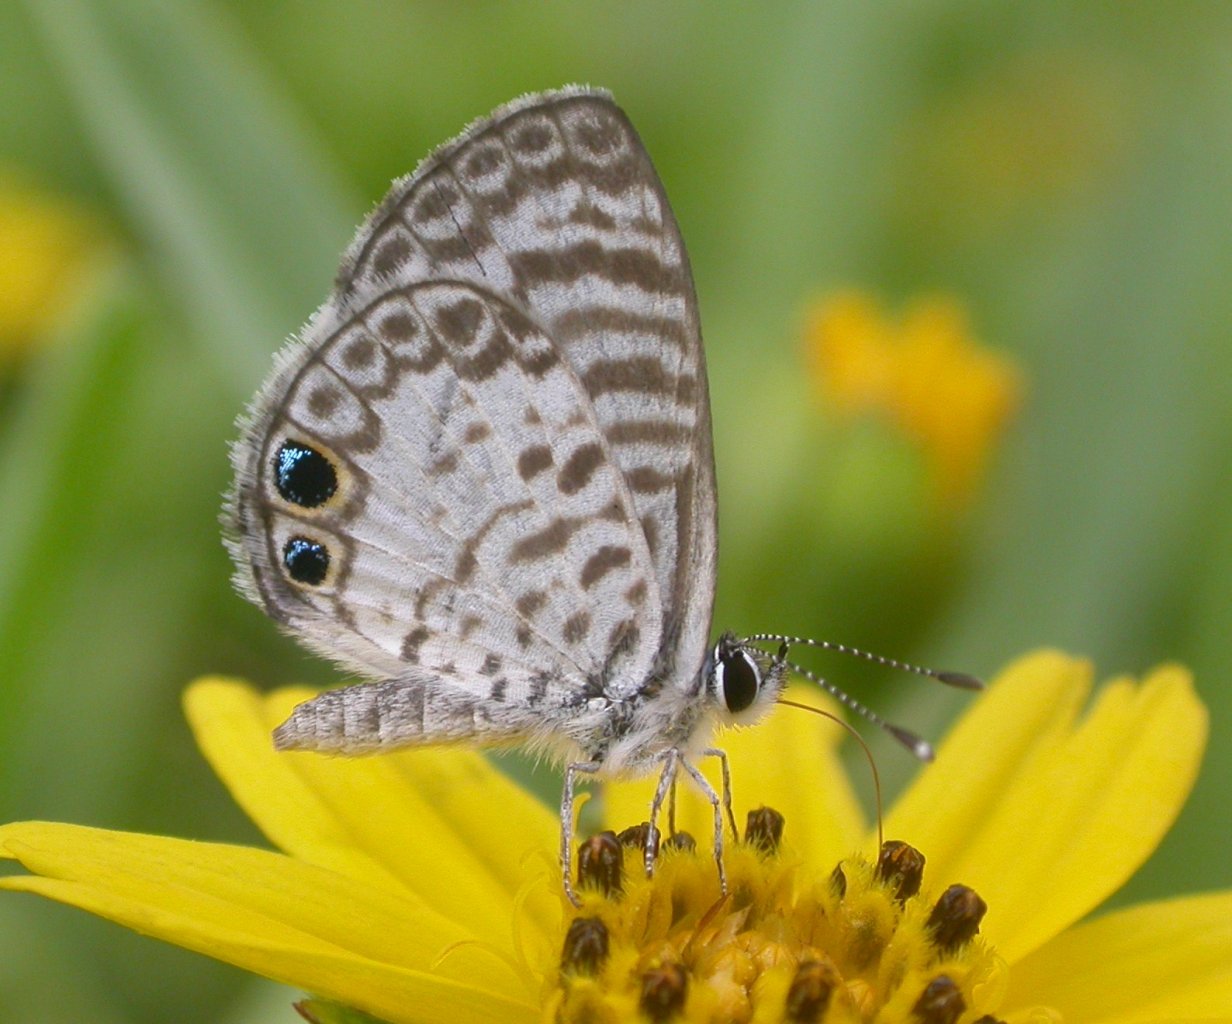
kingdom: Animalia
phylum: Arthropoda
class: Insecta
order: Lepidoptera
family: Lycaenidae
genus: Leptotes
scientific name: Leptotes cassius
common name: Cassius Blue
